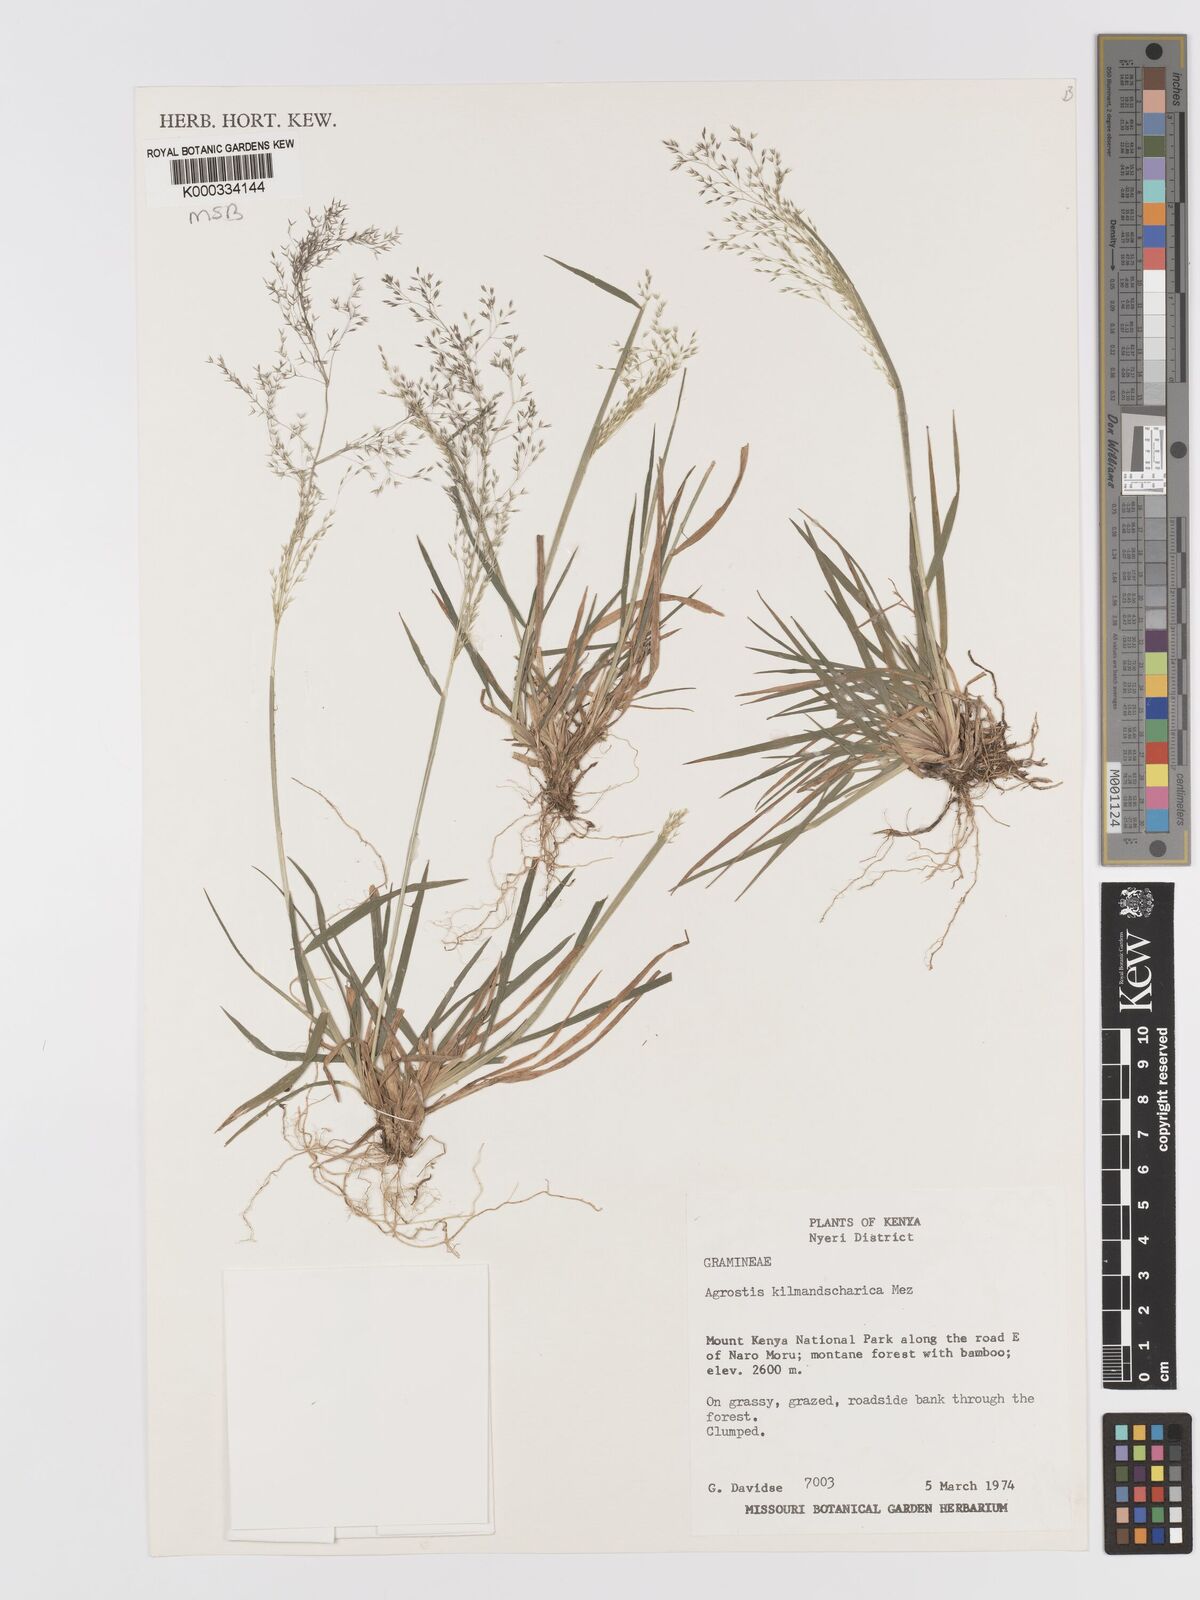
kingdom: Plantae
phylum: Tracheophyta
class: Liliopsida
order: Poales
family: Poaceae
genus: Agrostis
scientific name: Agrostis kilimandscharica
